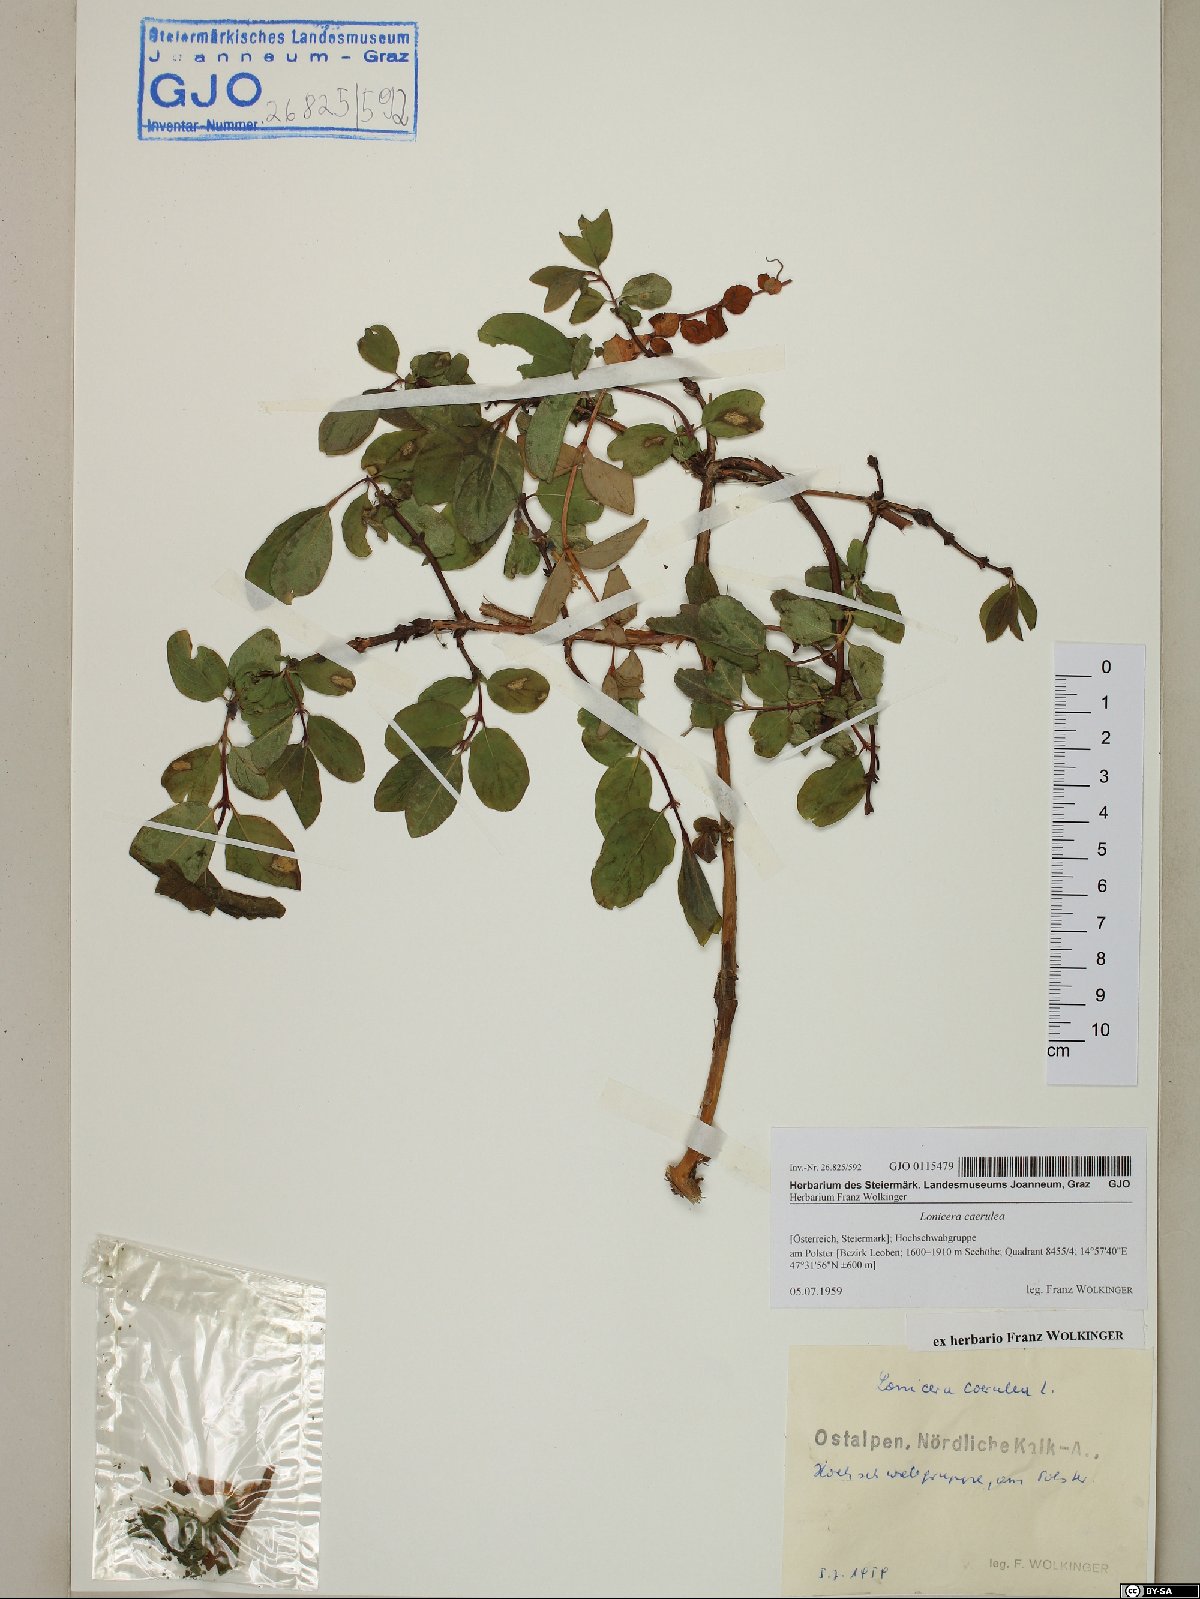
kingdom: Plantae
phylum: Tracheophyta
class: Magnoliopsida
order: Dipsacales
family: Caprifoliaceae
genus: Lonicera
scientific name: Lonicera caerulea
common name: Blue honeysuckle
